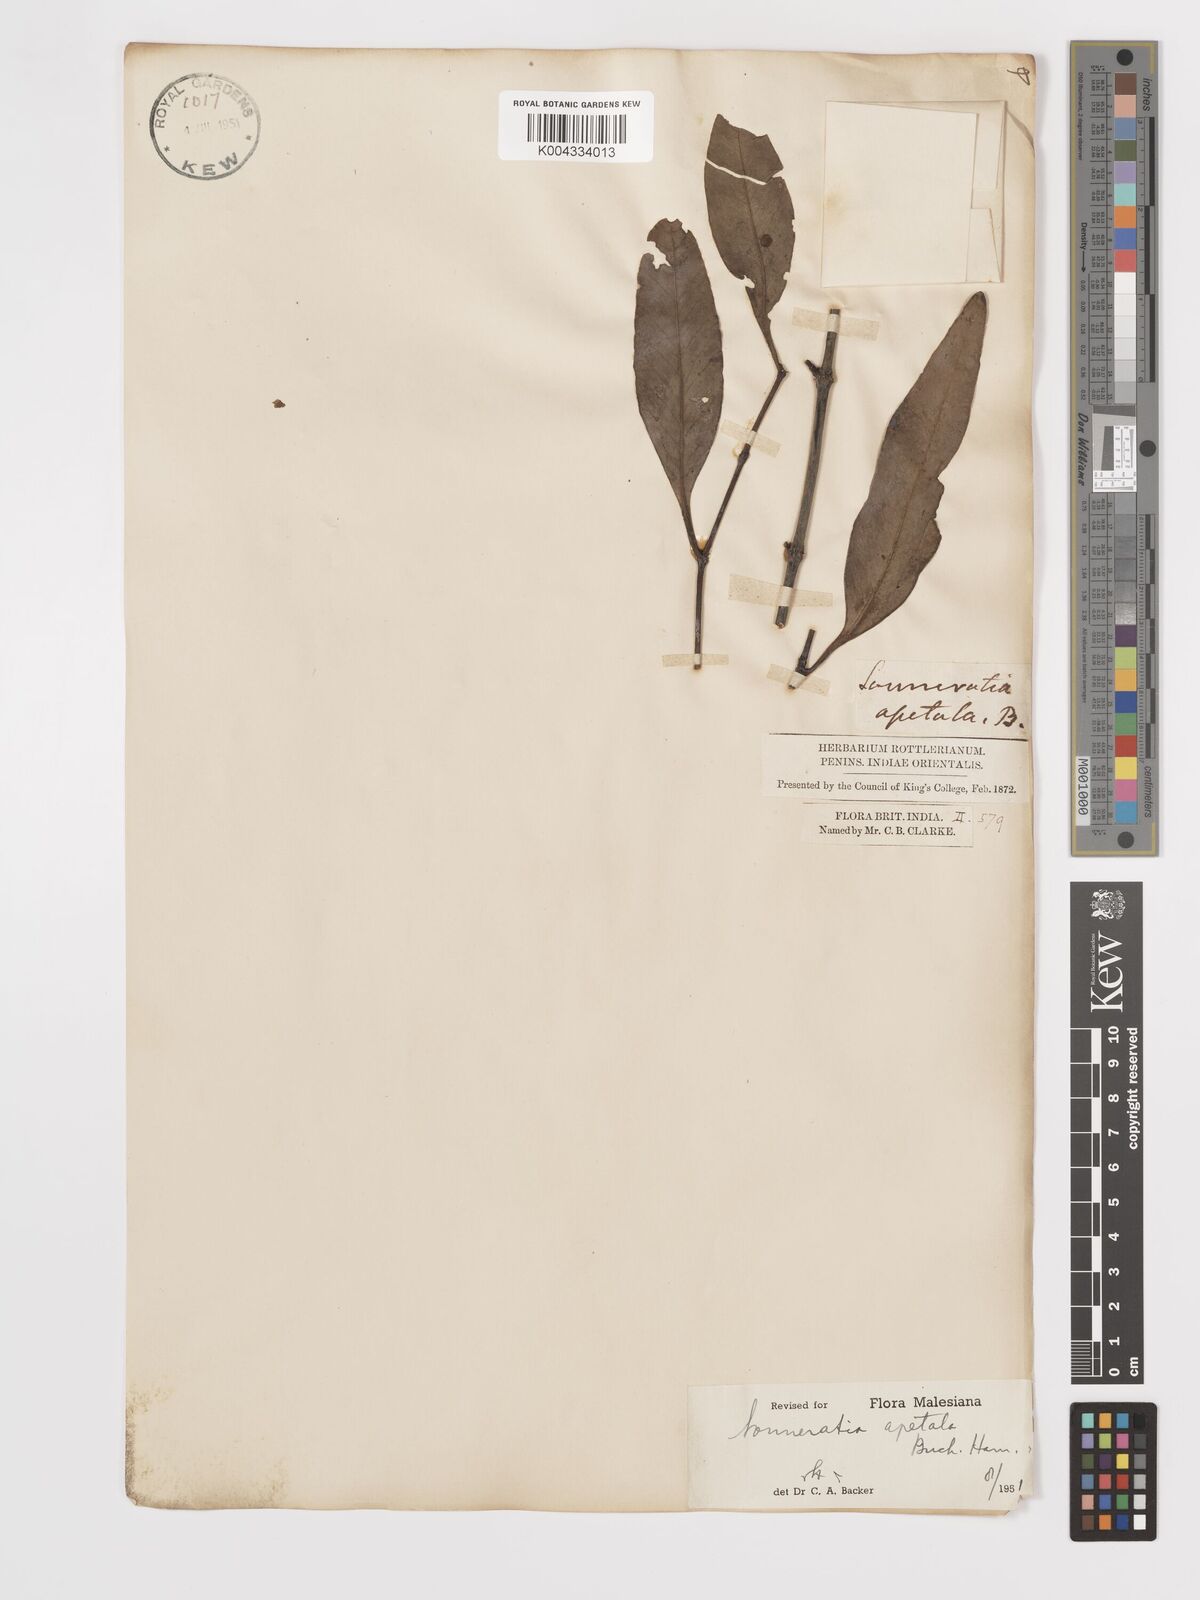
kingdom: Plantae
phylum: Tracheophyta
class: Magnoliopsida
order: Myrtales
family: Lythraceae
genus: Sonneratia
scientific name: Sonneratia apetala
